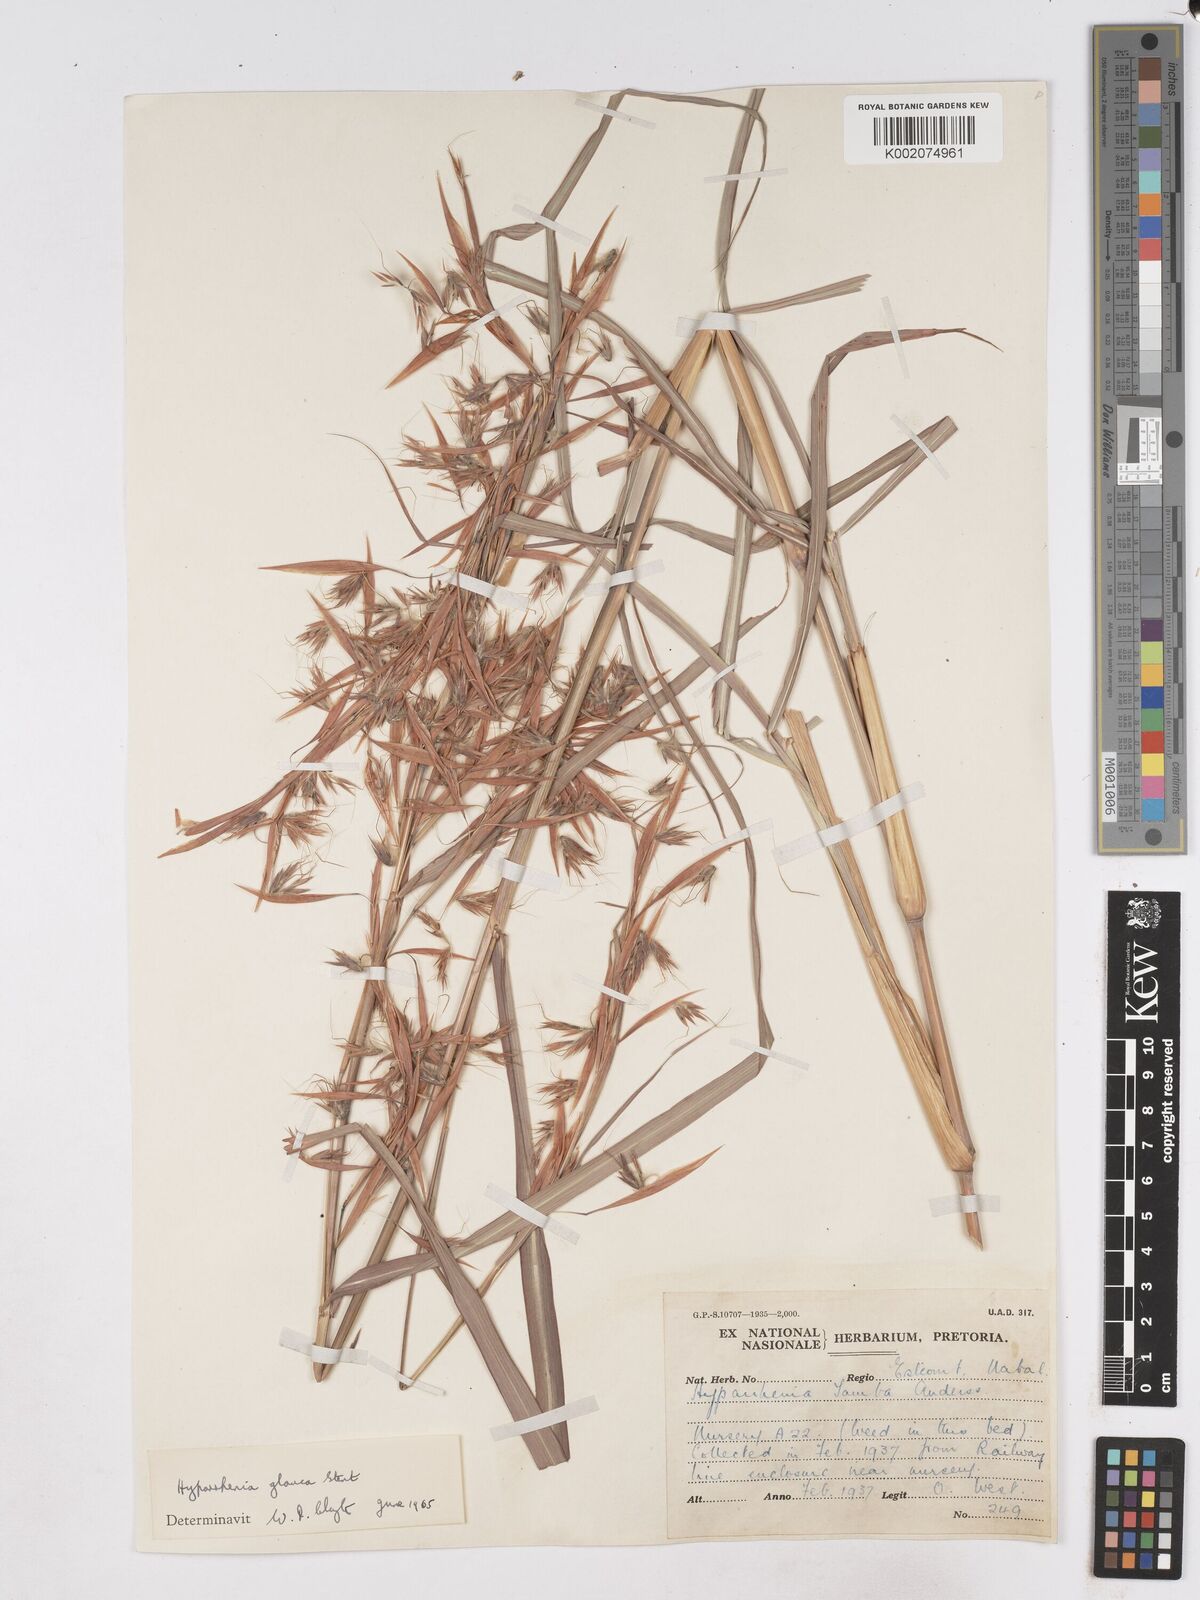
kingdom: Plantae
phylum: Tracheophyta
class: Liliopsida
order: Poales
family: Poaceae
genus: Hyparrhenia
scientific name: Hyparrhenia tamba
